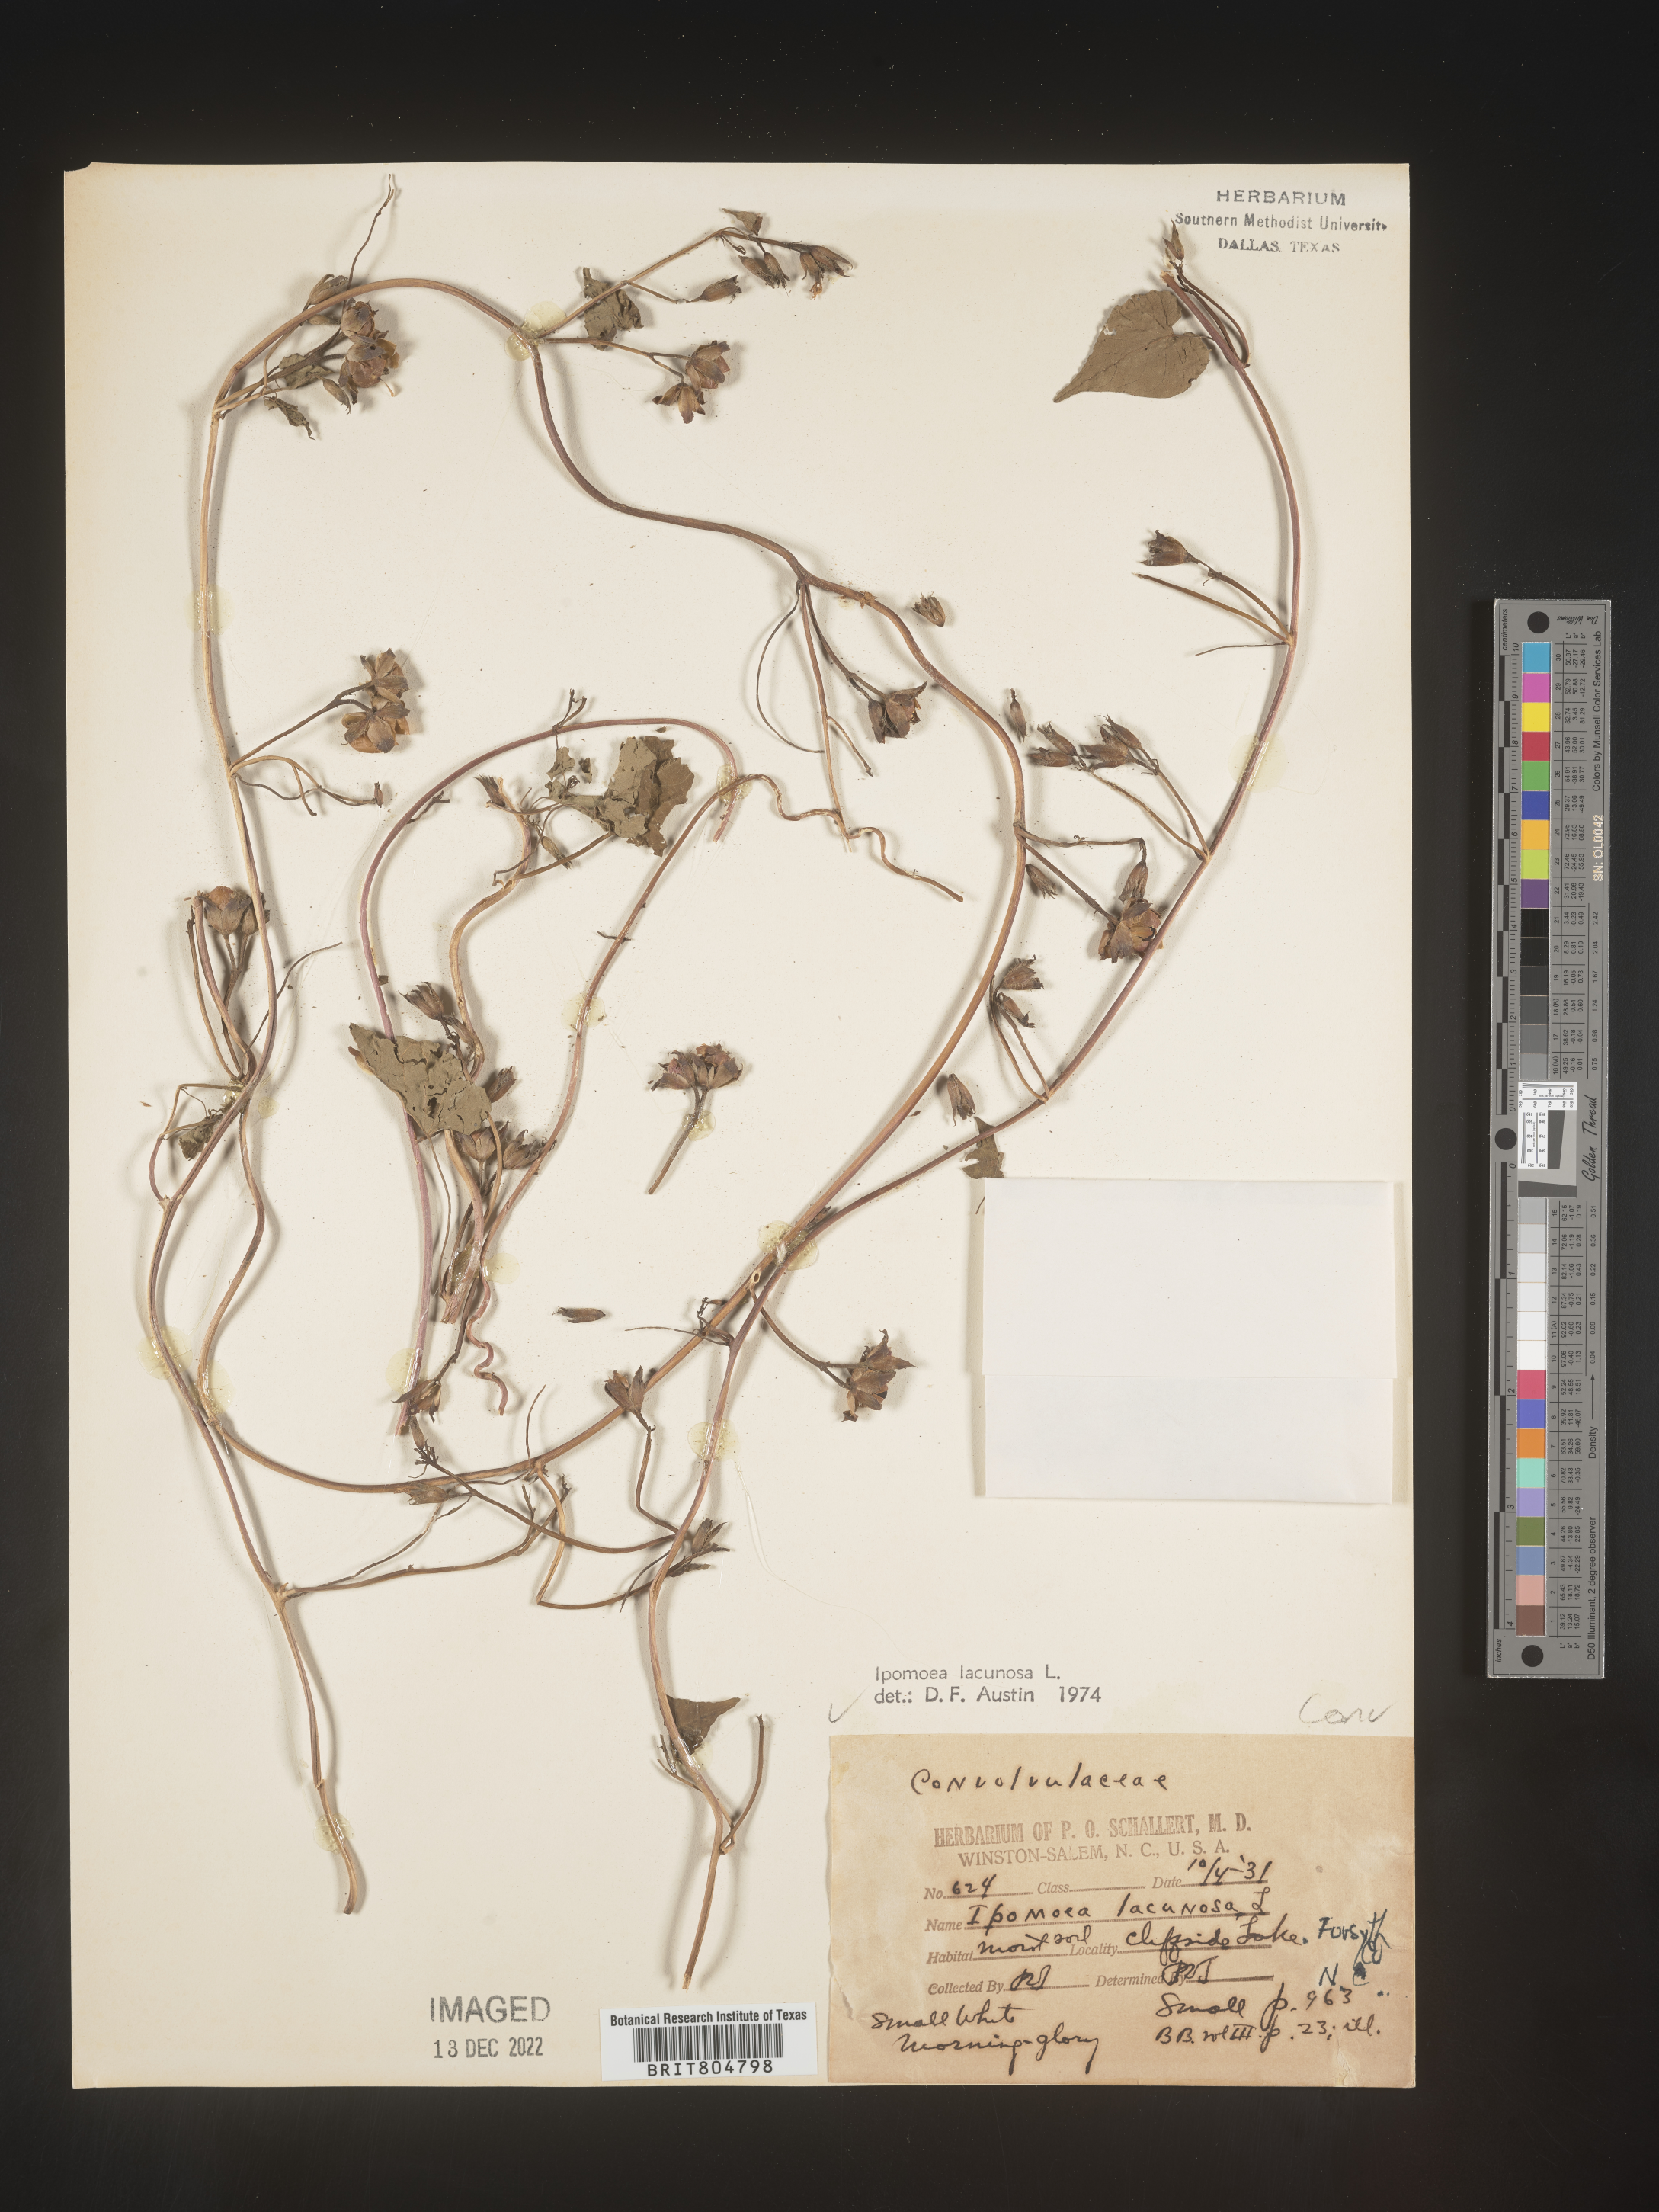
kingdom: Plantae
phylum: Tracheophyta
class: Magnoliopsida
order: Solanales
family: Convolvulaceae
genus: Ipomoea
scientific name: Ipomoea lacunosa
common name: White morning-glory
